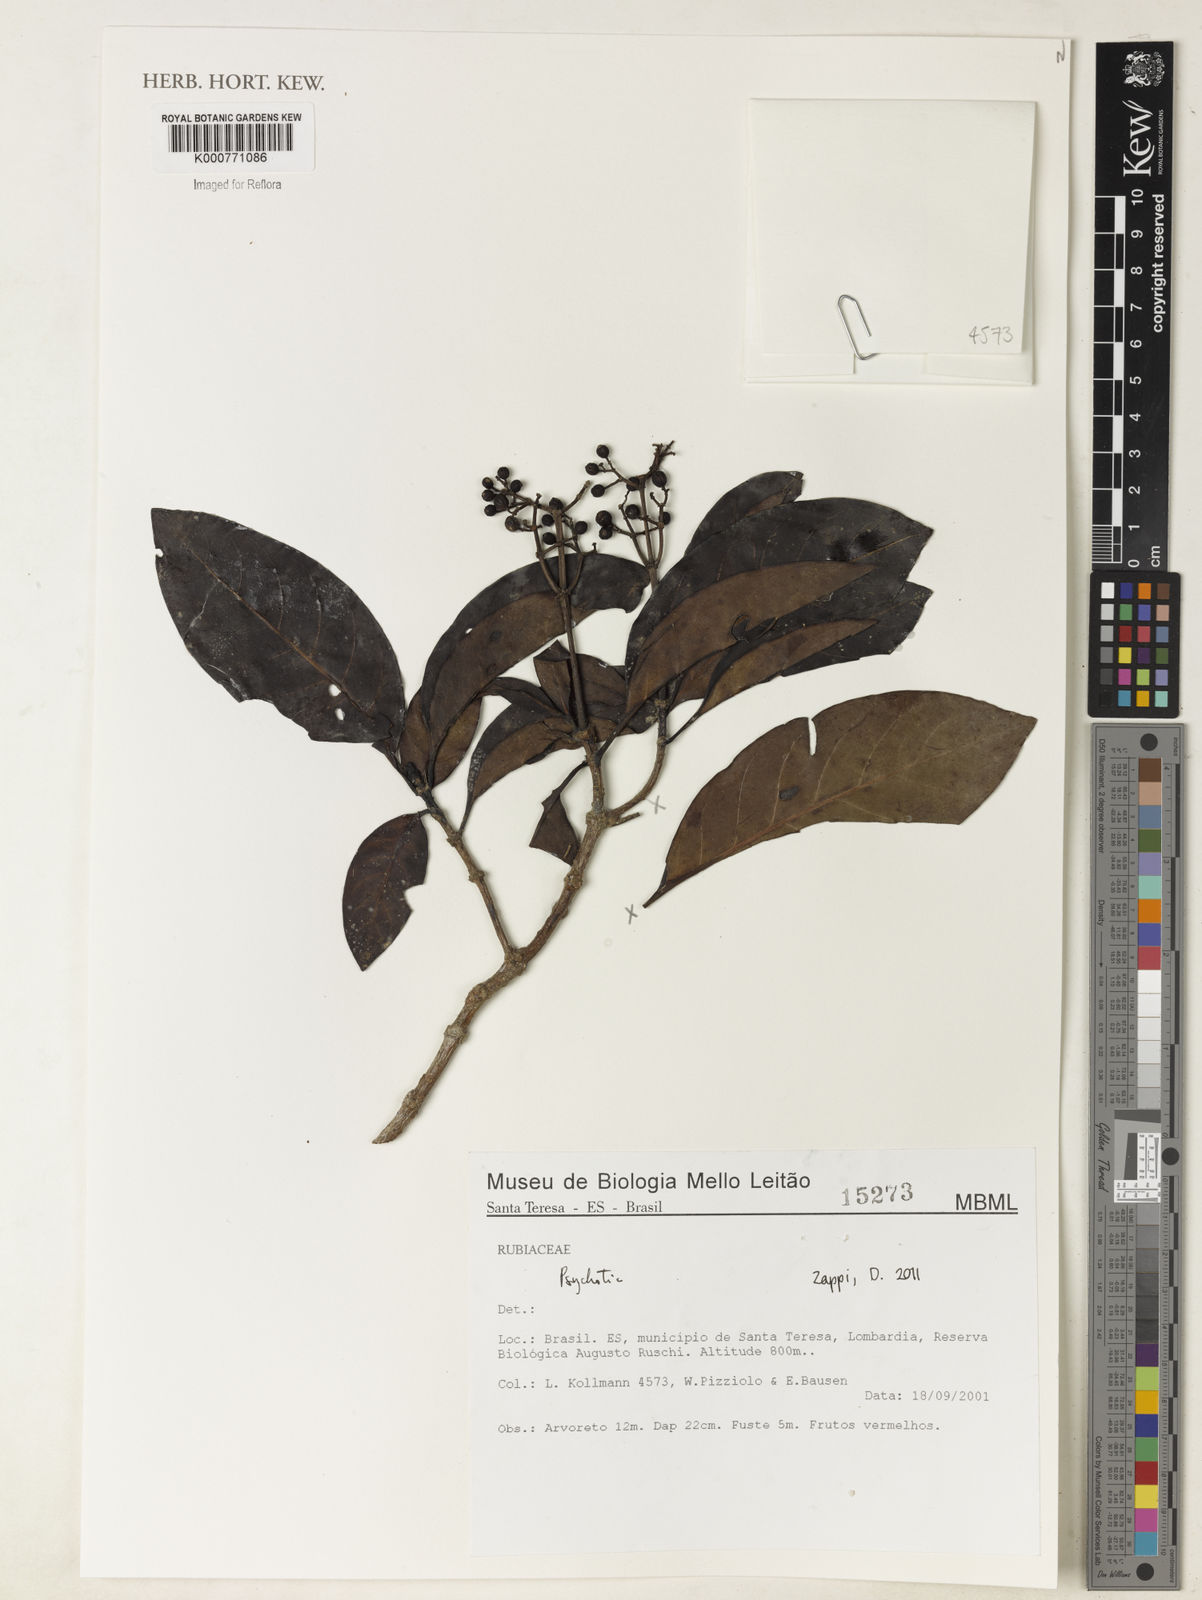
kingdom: Plantae
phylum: Tracheophyta
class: Magnoliopsida
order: Gentianales
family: Rubiaceae
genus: Psychotria
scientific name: Psychotria
